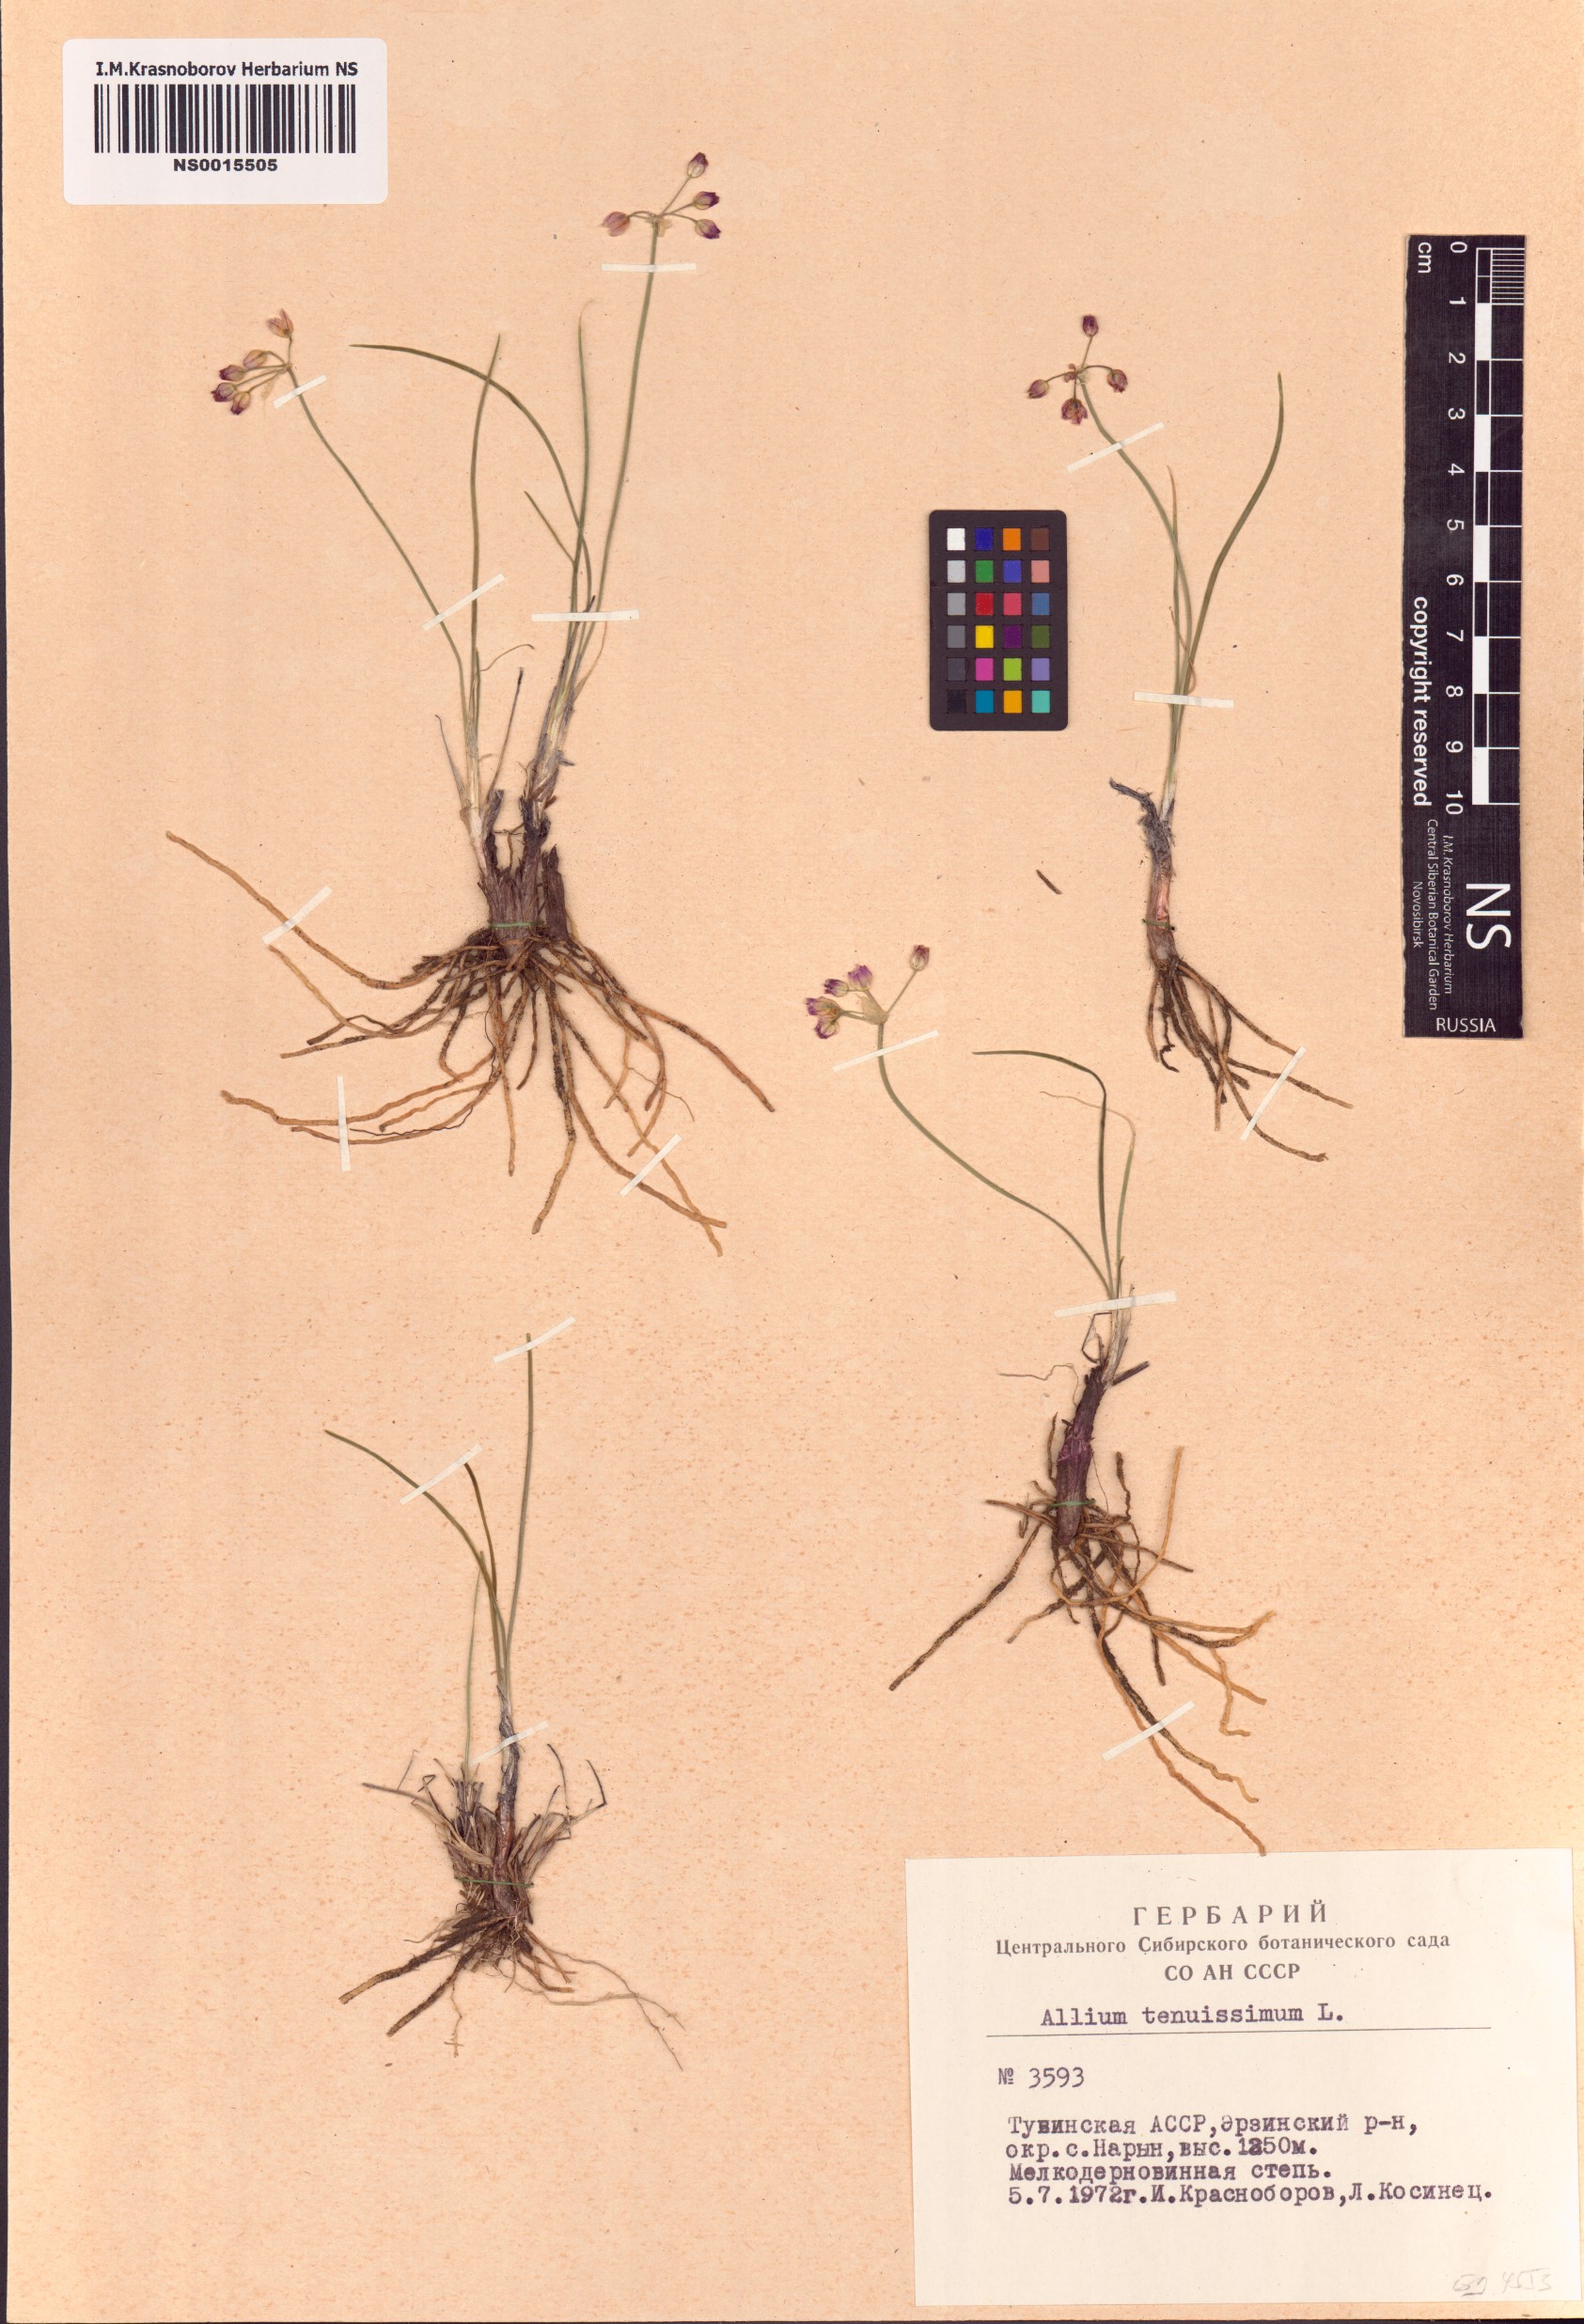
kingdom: Plantae
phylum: Tracheophyta
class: Liliopsida
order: Asparagales
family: Amaryllidaceae
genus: Allium
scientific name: Allium tenuissimum
